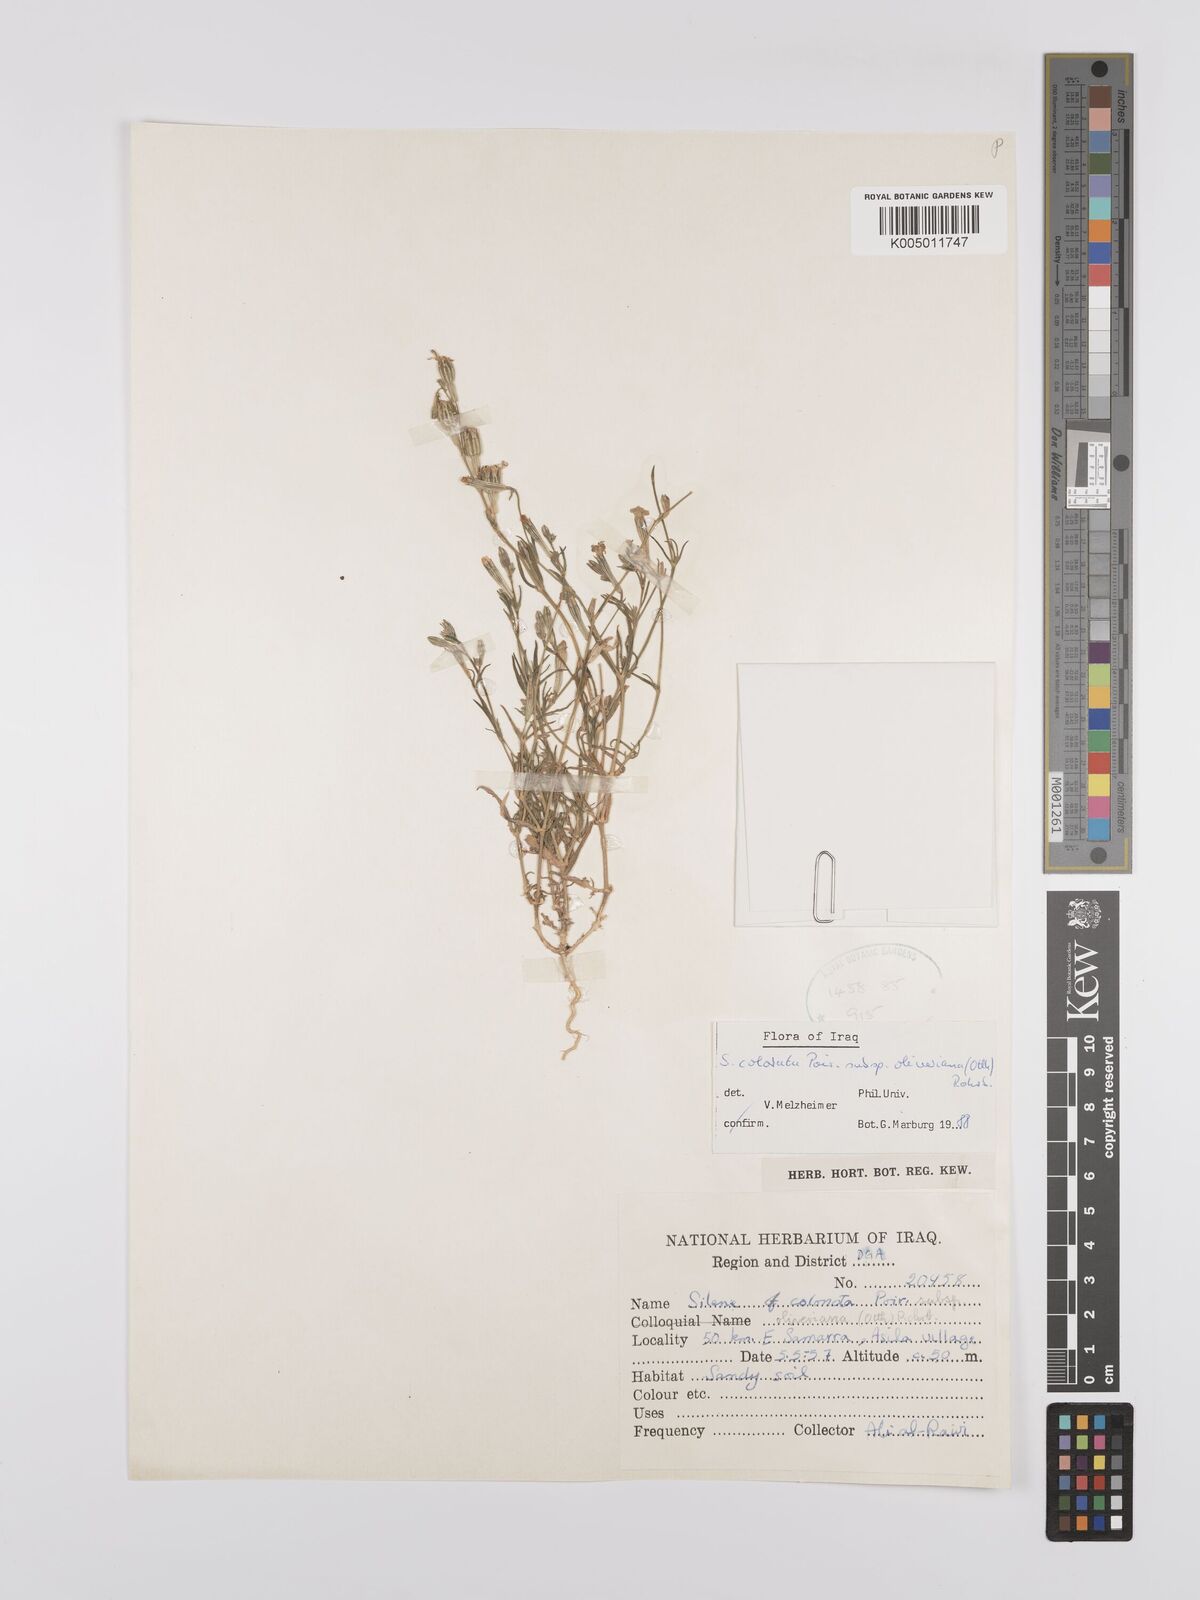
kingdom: Plantae
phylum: Tracheophyta
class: Magnoliopsida
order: Caryophyllales
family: Caryophyllaceae
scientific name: Caryophyllaceae
